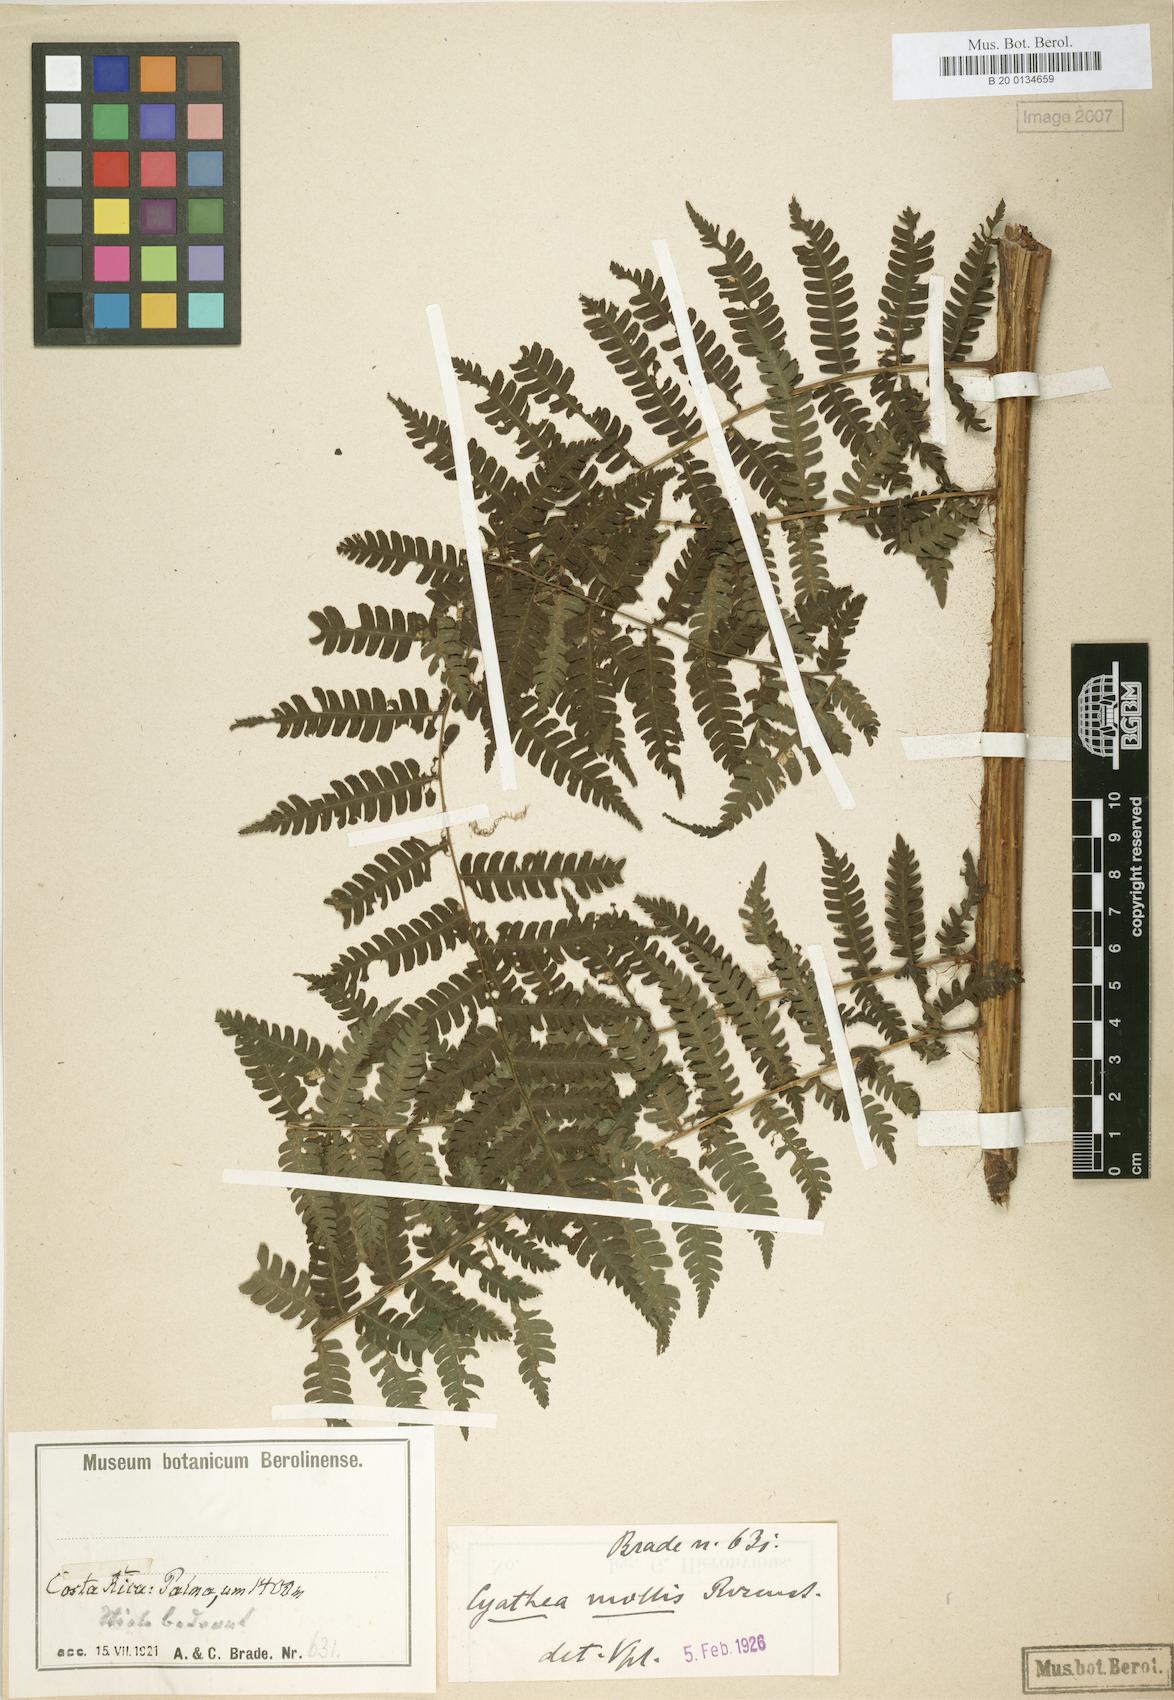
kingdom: Plantae
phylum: Tracheophyta
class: Polypodiopsida
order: Cyatheales
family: Cyatheaceae
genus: Cyathea
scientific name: Cyathea fulva
